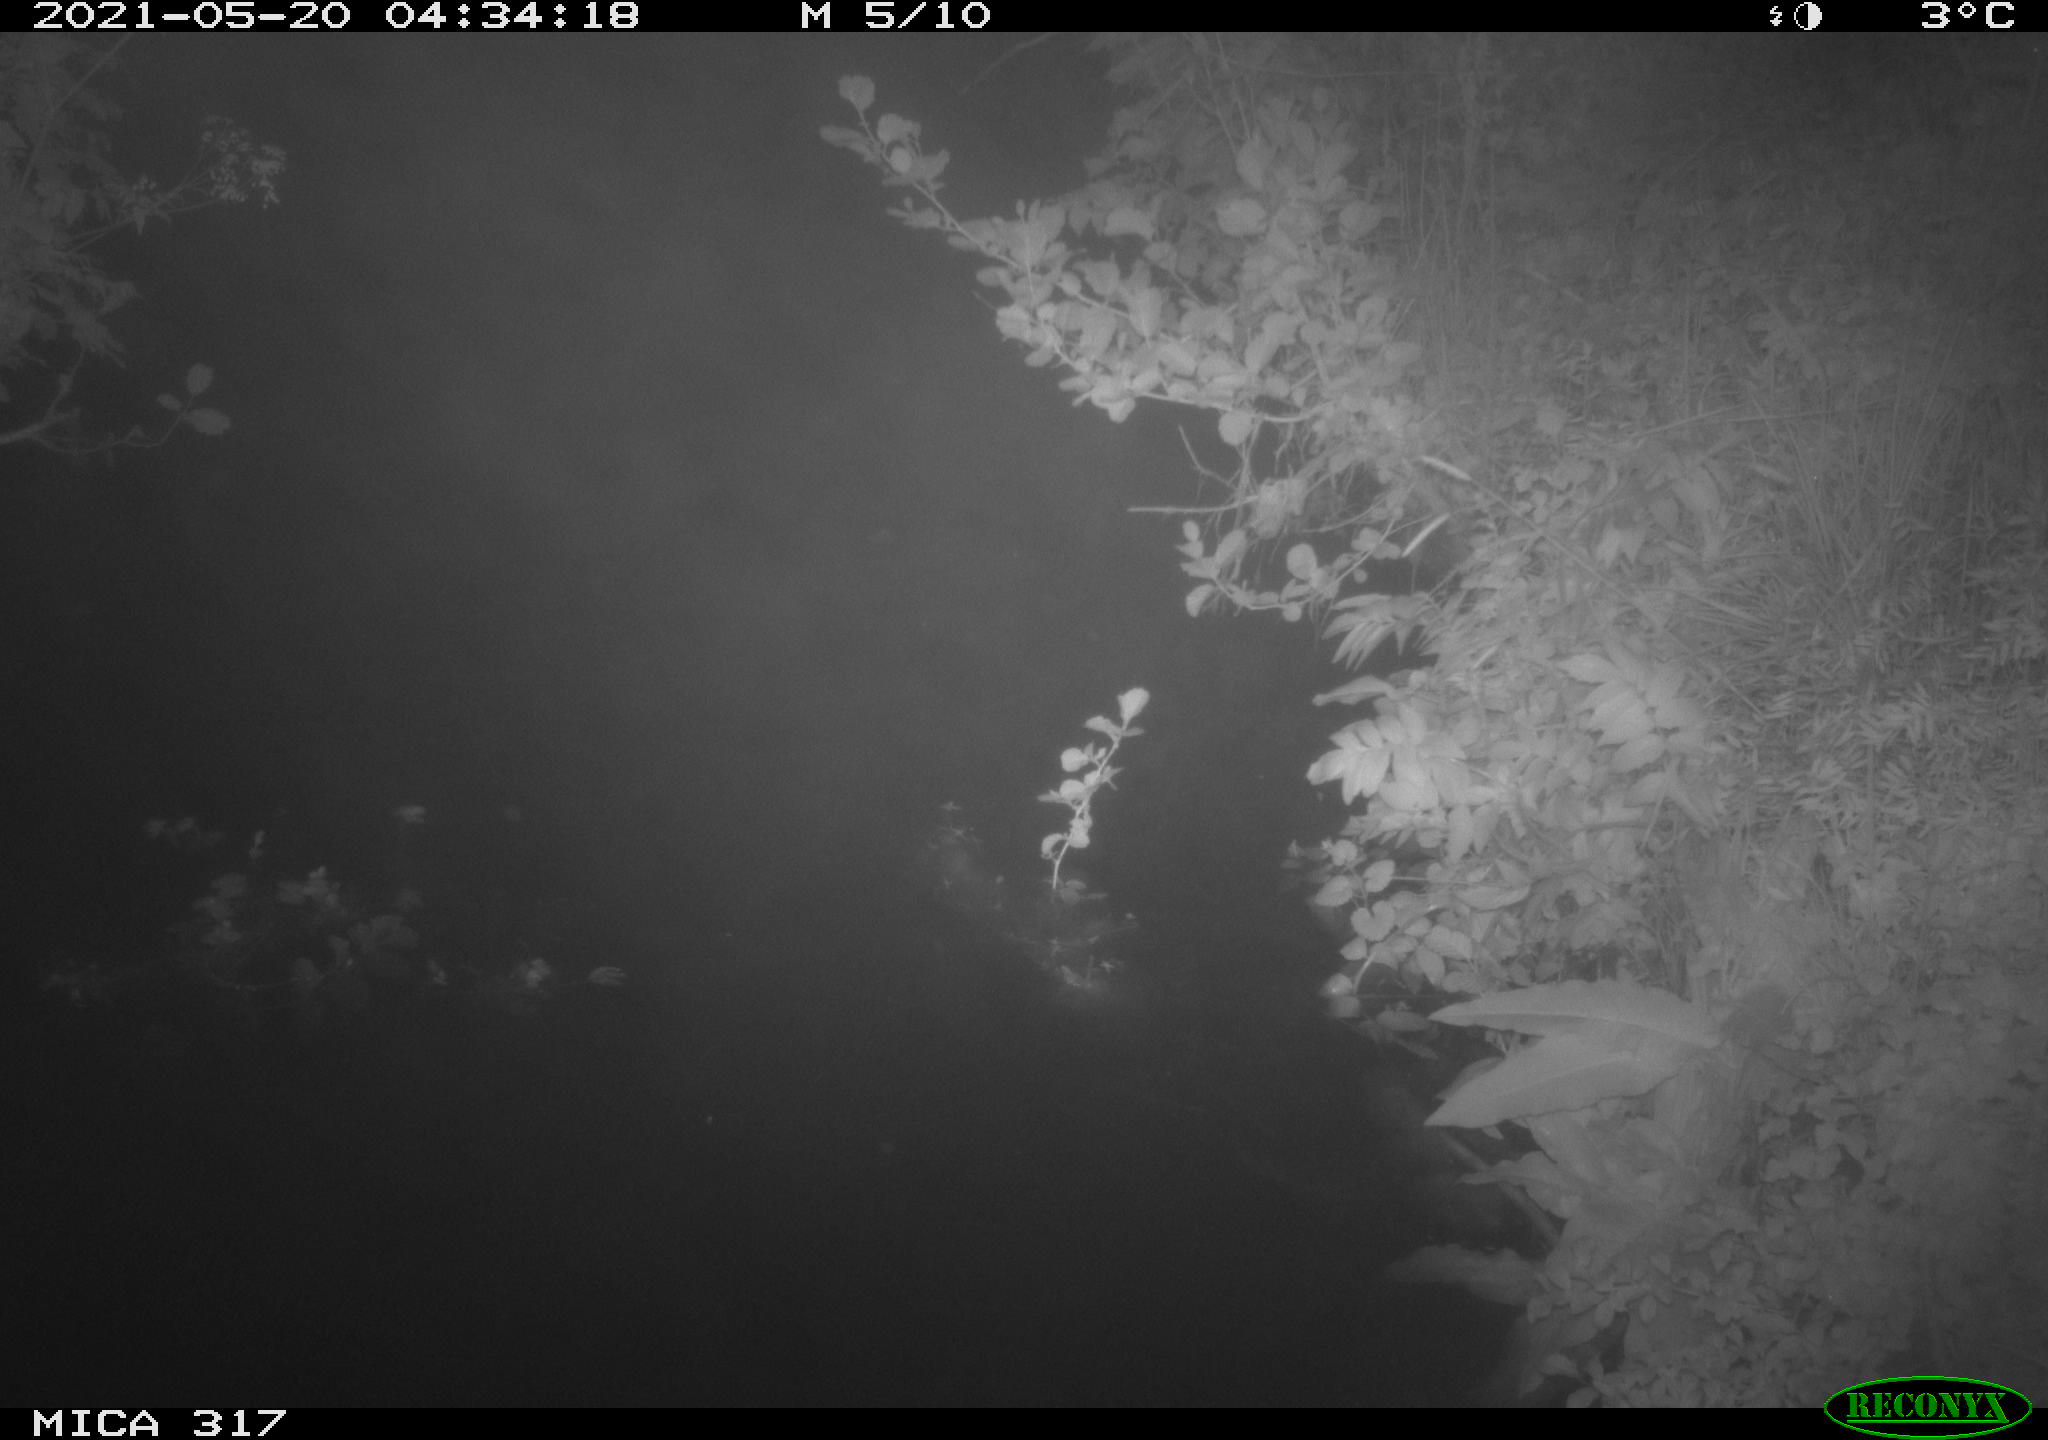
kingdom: Animalia
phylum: Chordata
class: Aves
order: Anseriformes
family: Anatidae
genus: Anas
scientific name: Anas
